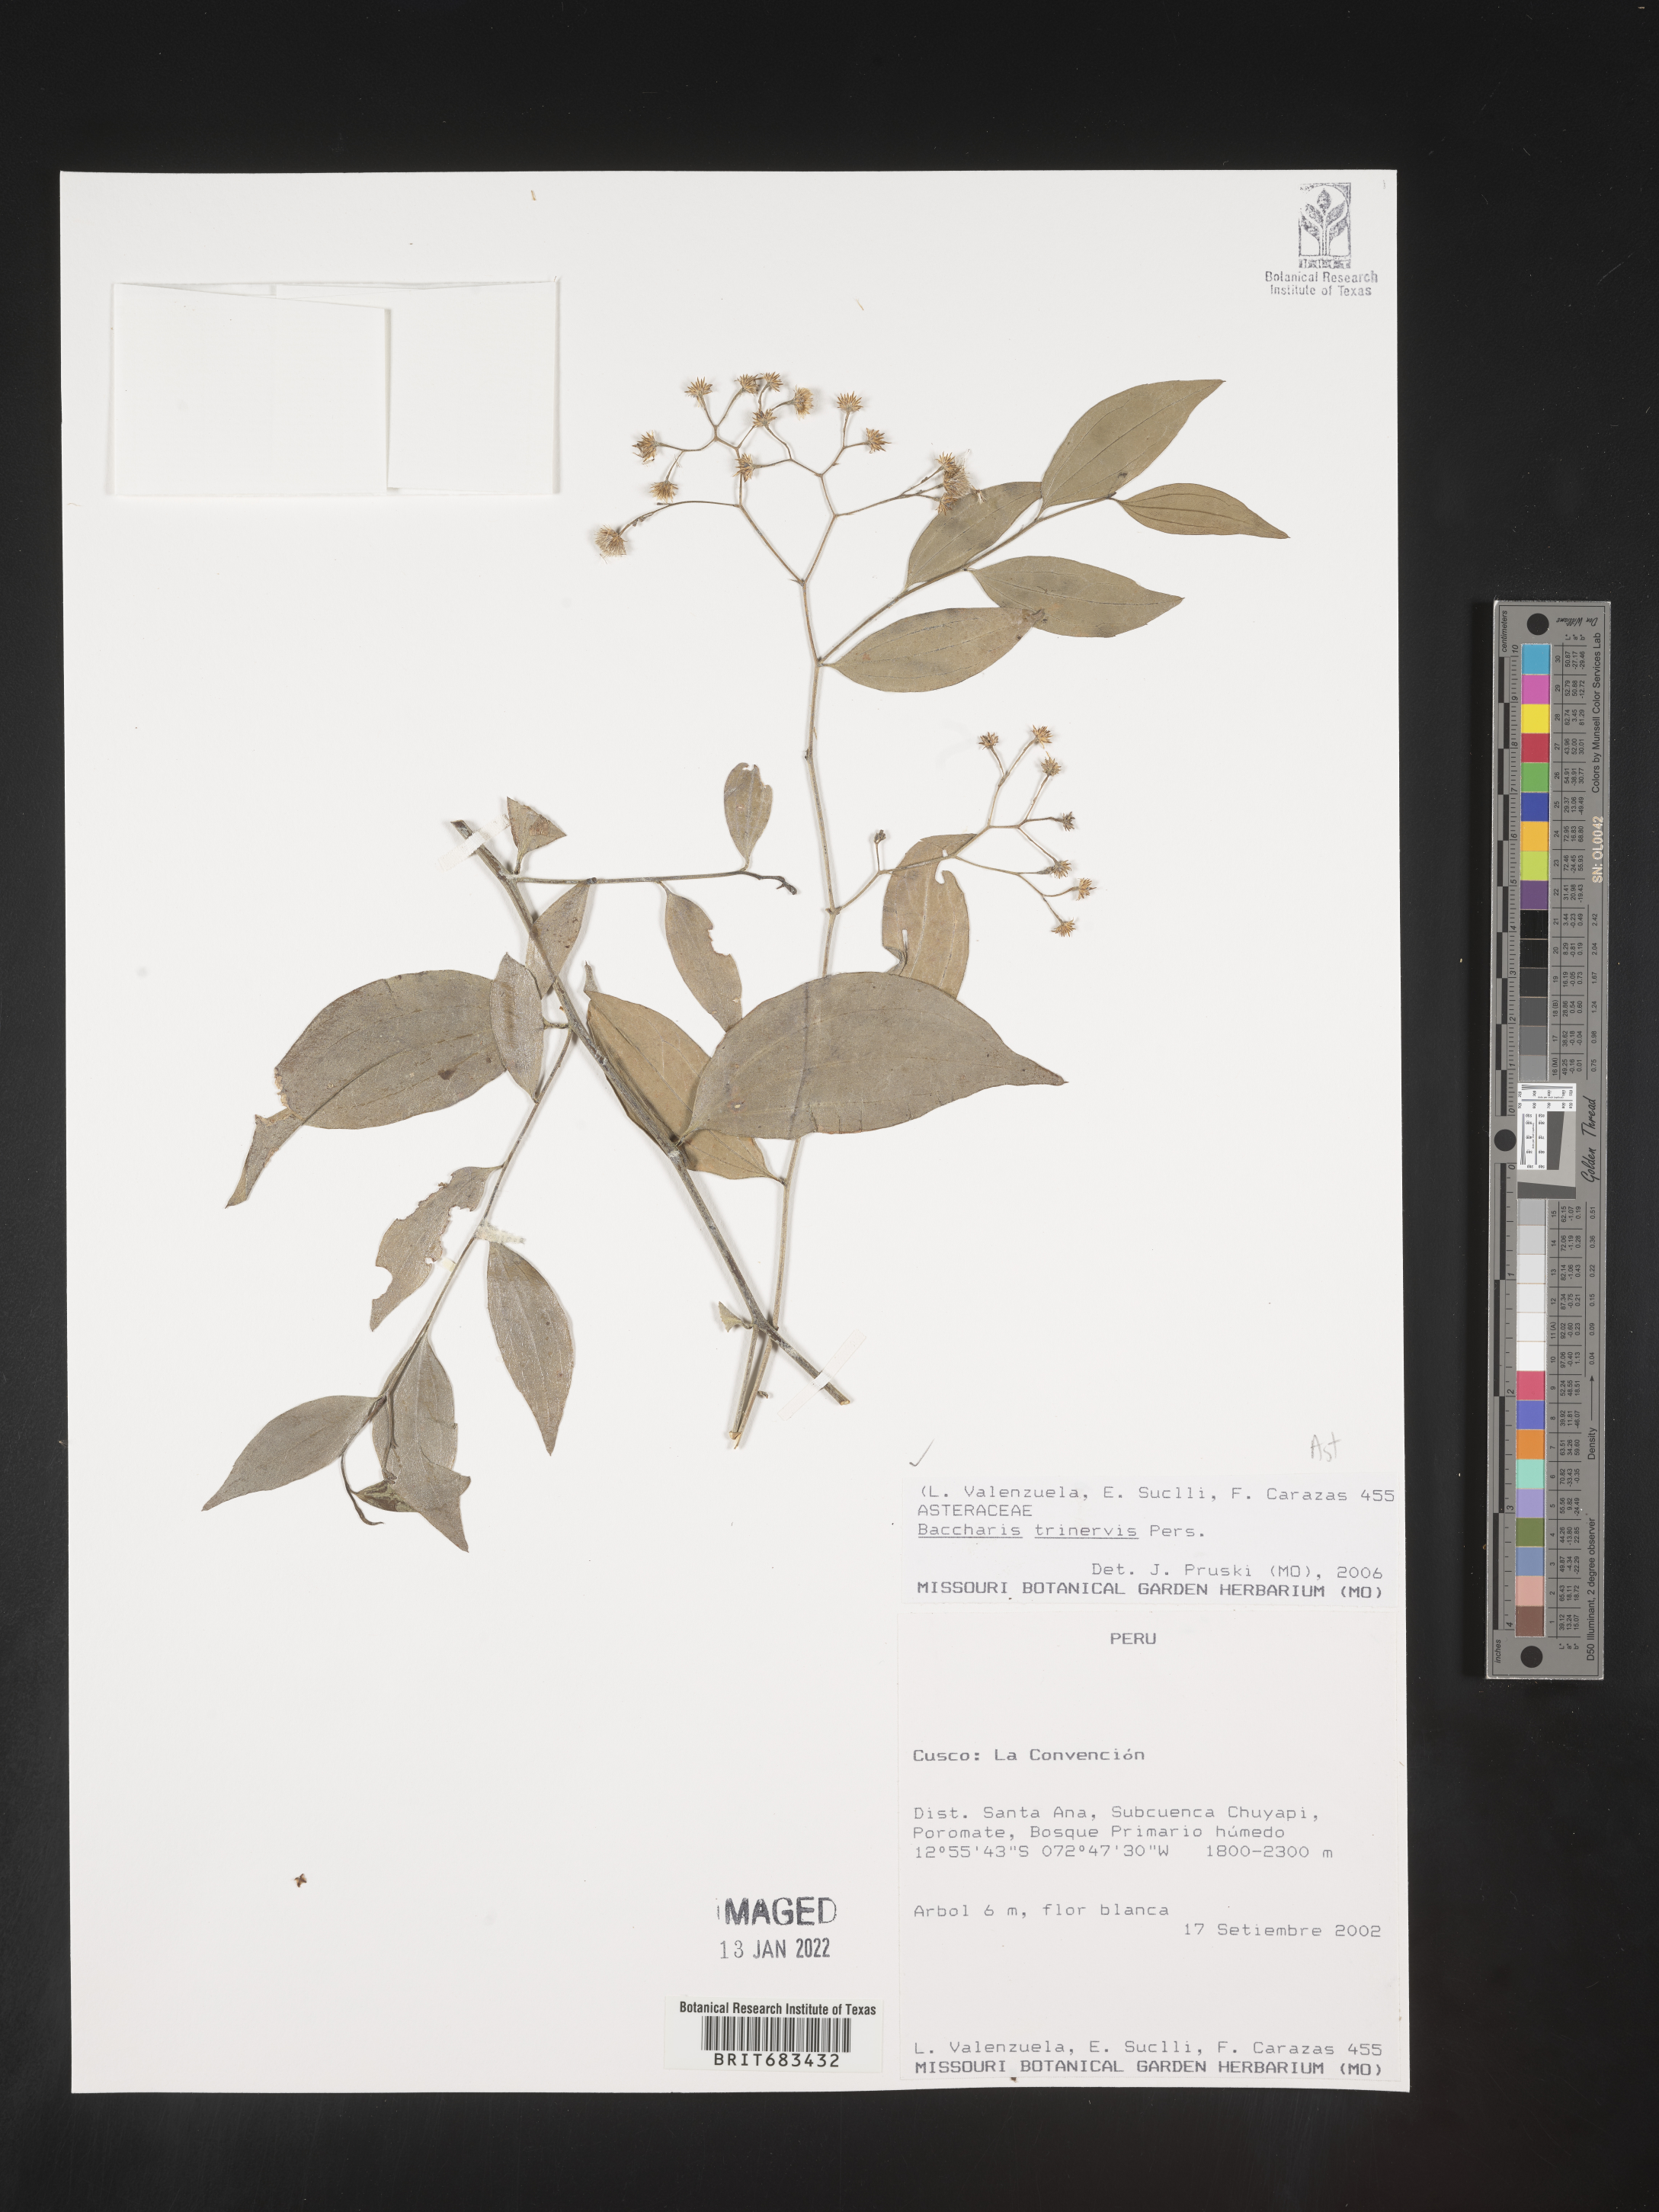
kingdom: Plantae
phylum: Tracheophyta
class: Magnoliopsida
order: Asterales
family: Asteraceae
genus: Baccharis
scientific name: Baccharis trinervis
